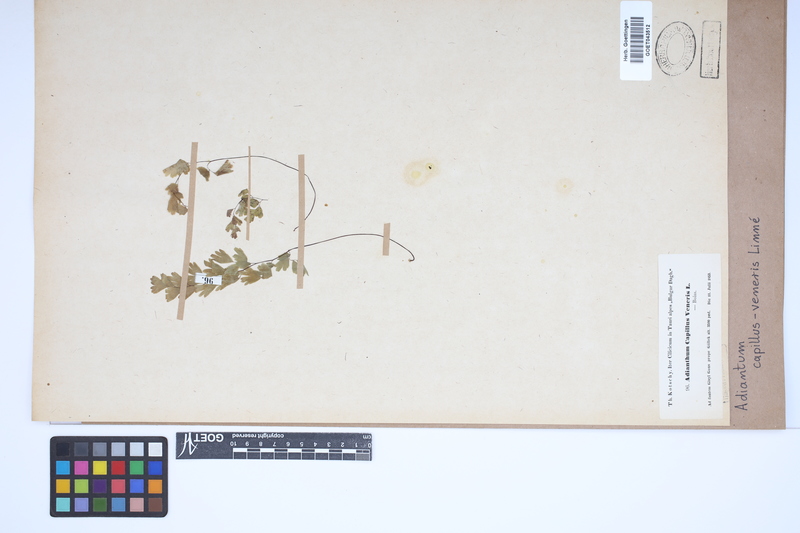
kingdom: Plantae
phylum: Tracheophyta
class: Polypodiopsida
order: Polypodiales
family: Pteridaceae
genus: Adiantum
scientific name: Adiantum capillus-veneris
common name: Maidenhair fern
